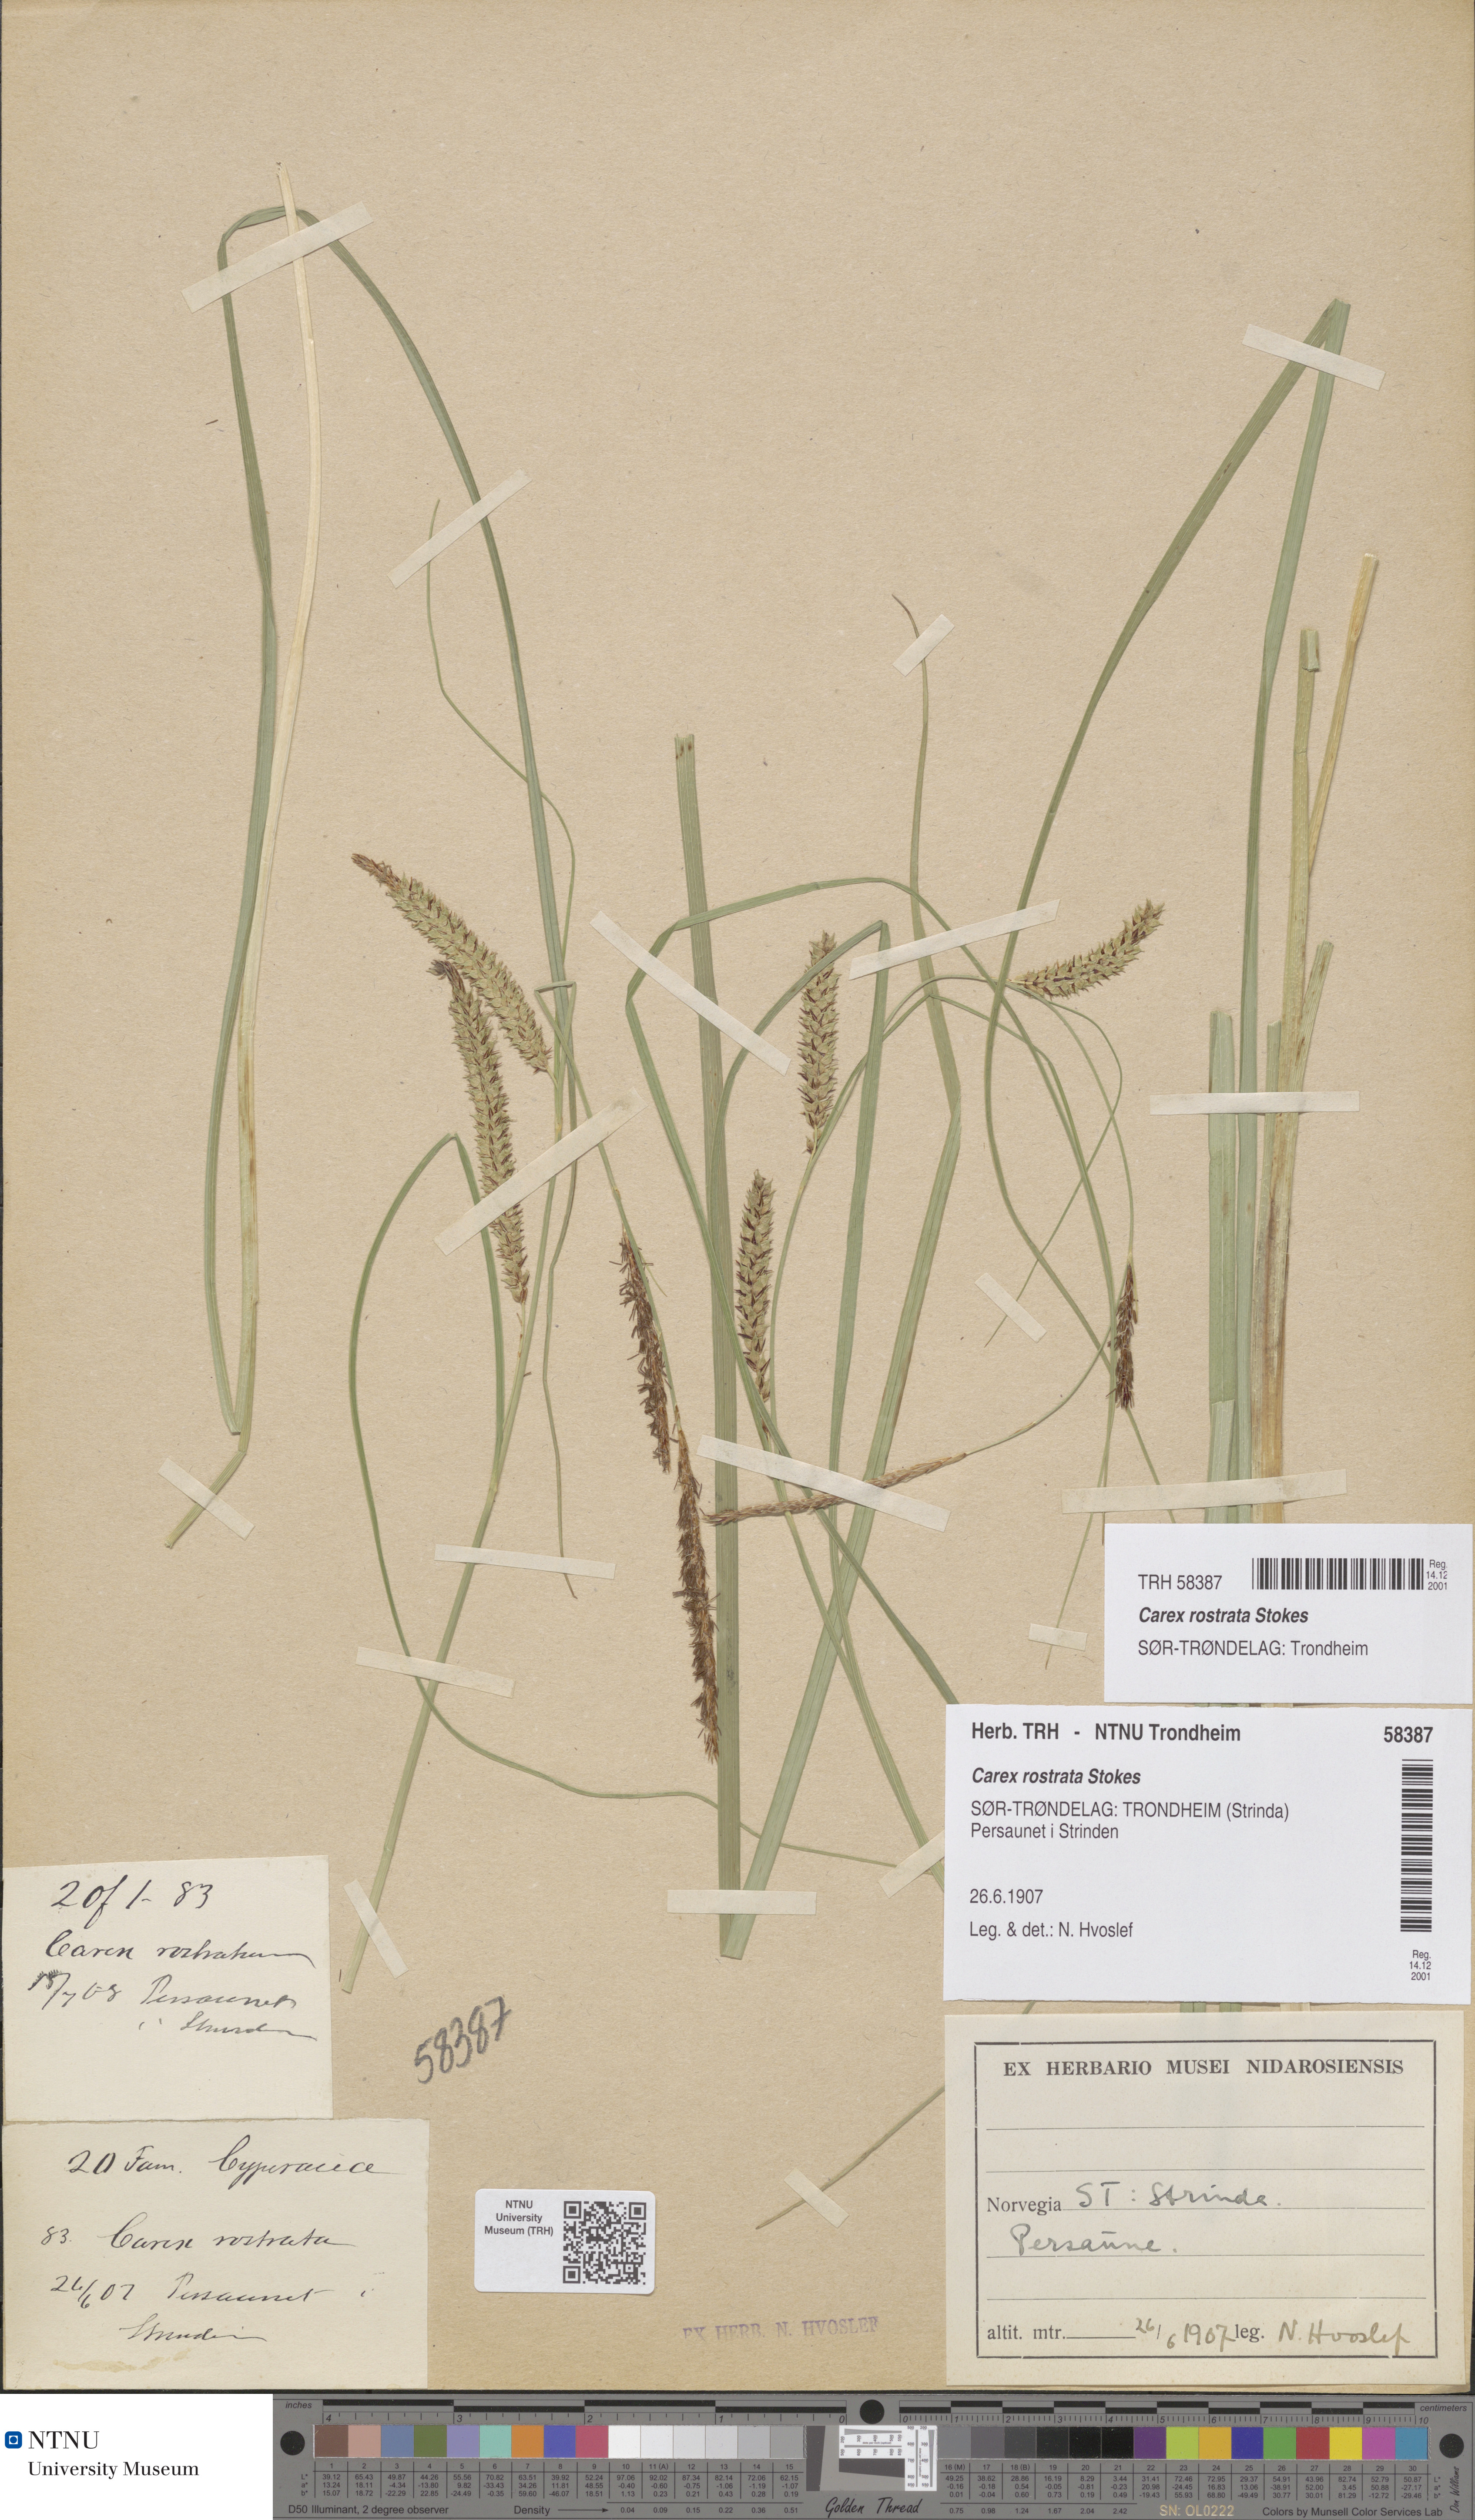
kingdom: Plantae
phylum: Tracheophyta
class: Liliopsida
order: Poales
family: Cyperaceae
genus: Carex
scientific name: Carex rostrata
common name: Bottle sedge
